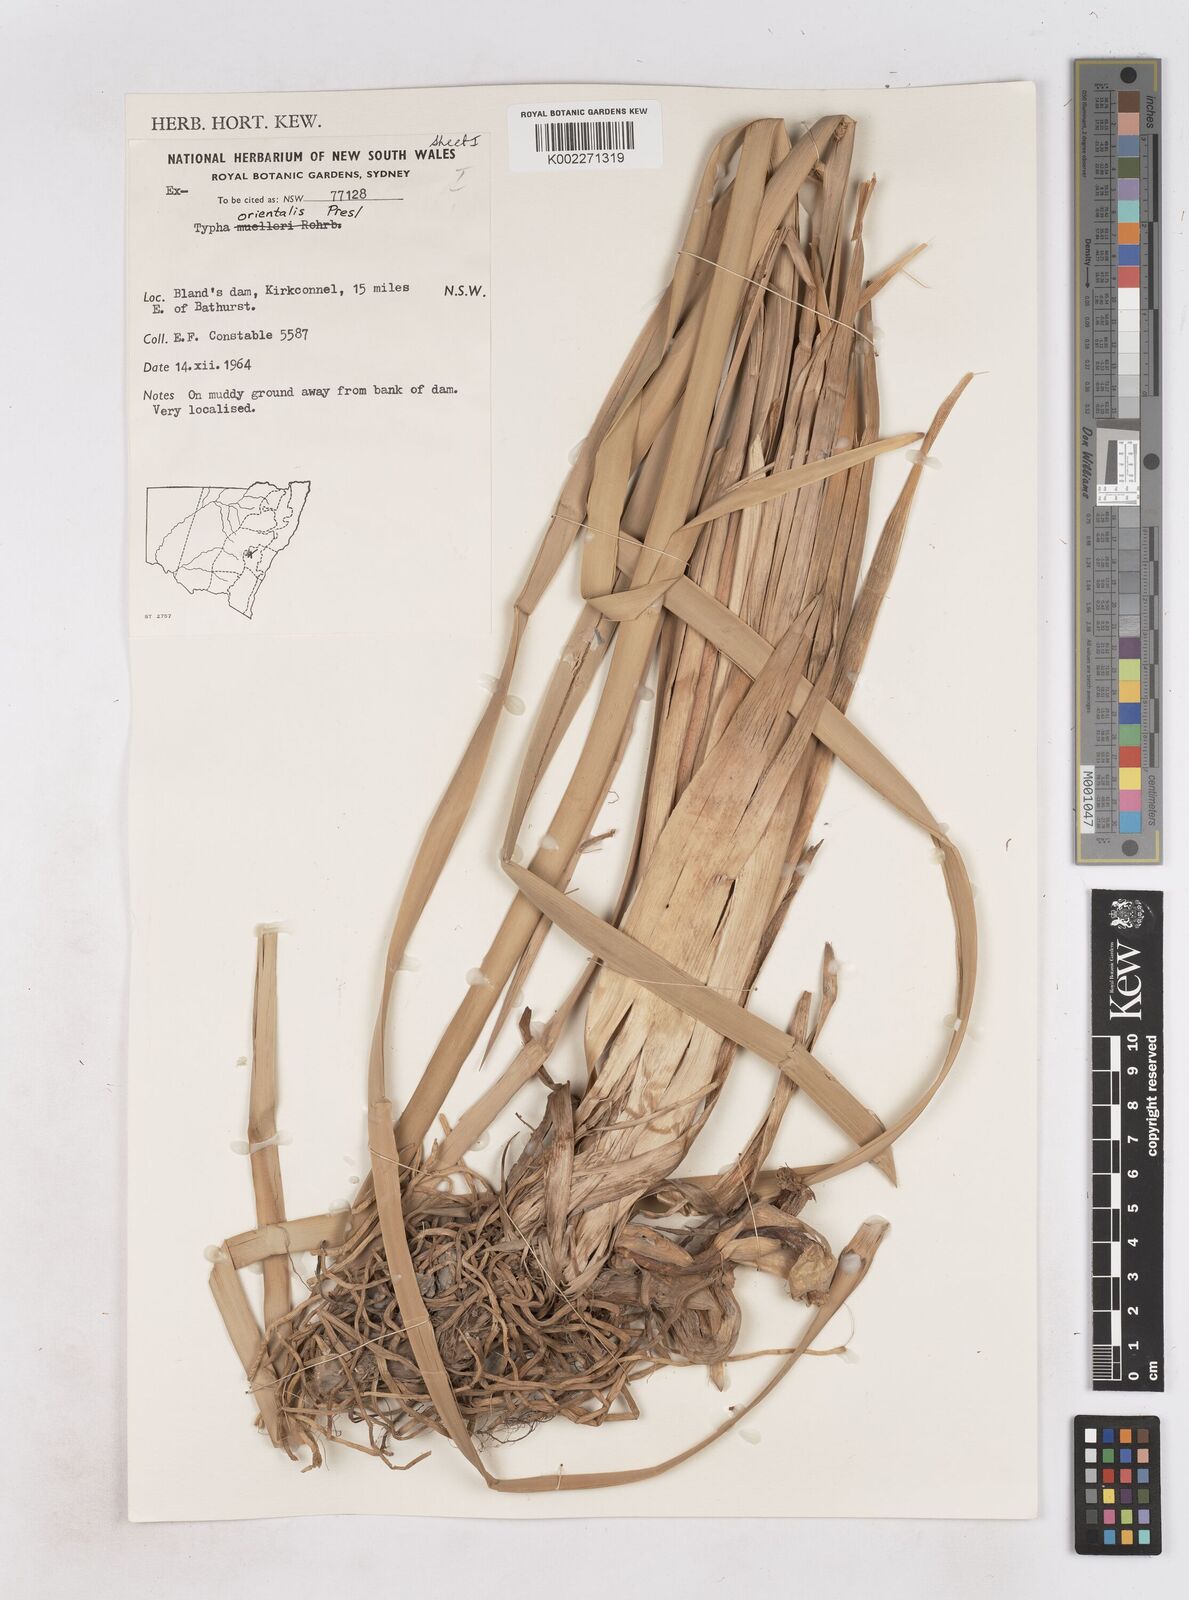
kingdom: Plantae
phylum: Tracheophyta
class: Liliopsida
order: Poales
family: Typhaceae
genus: Typha
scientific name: Typha orientalis
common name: Bullrush
